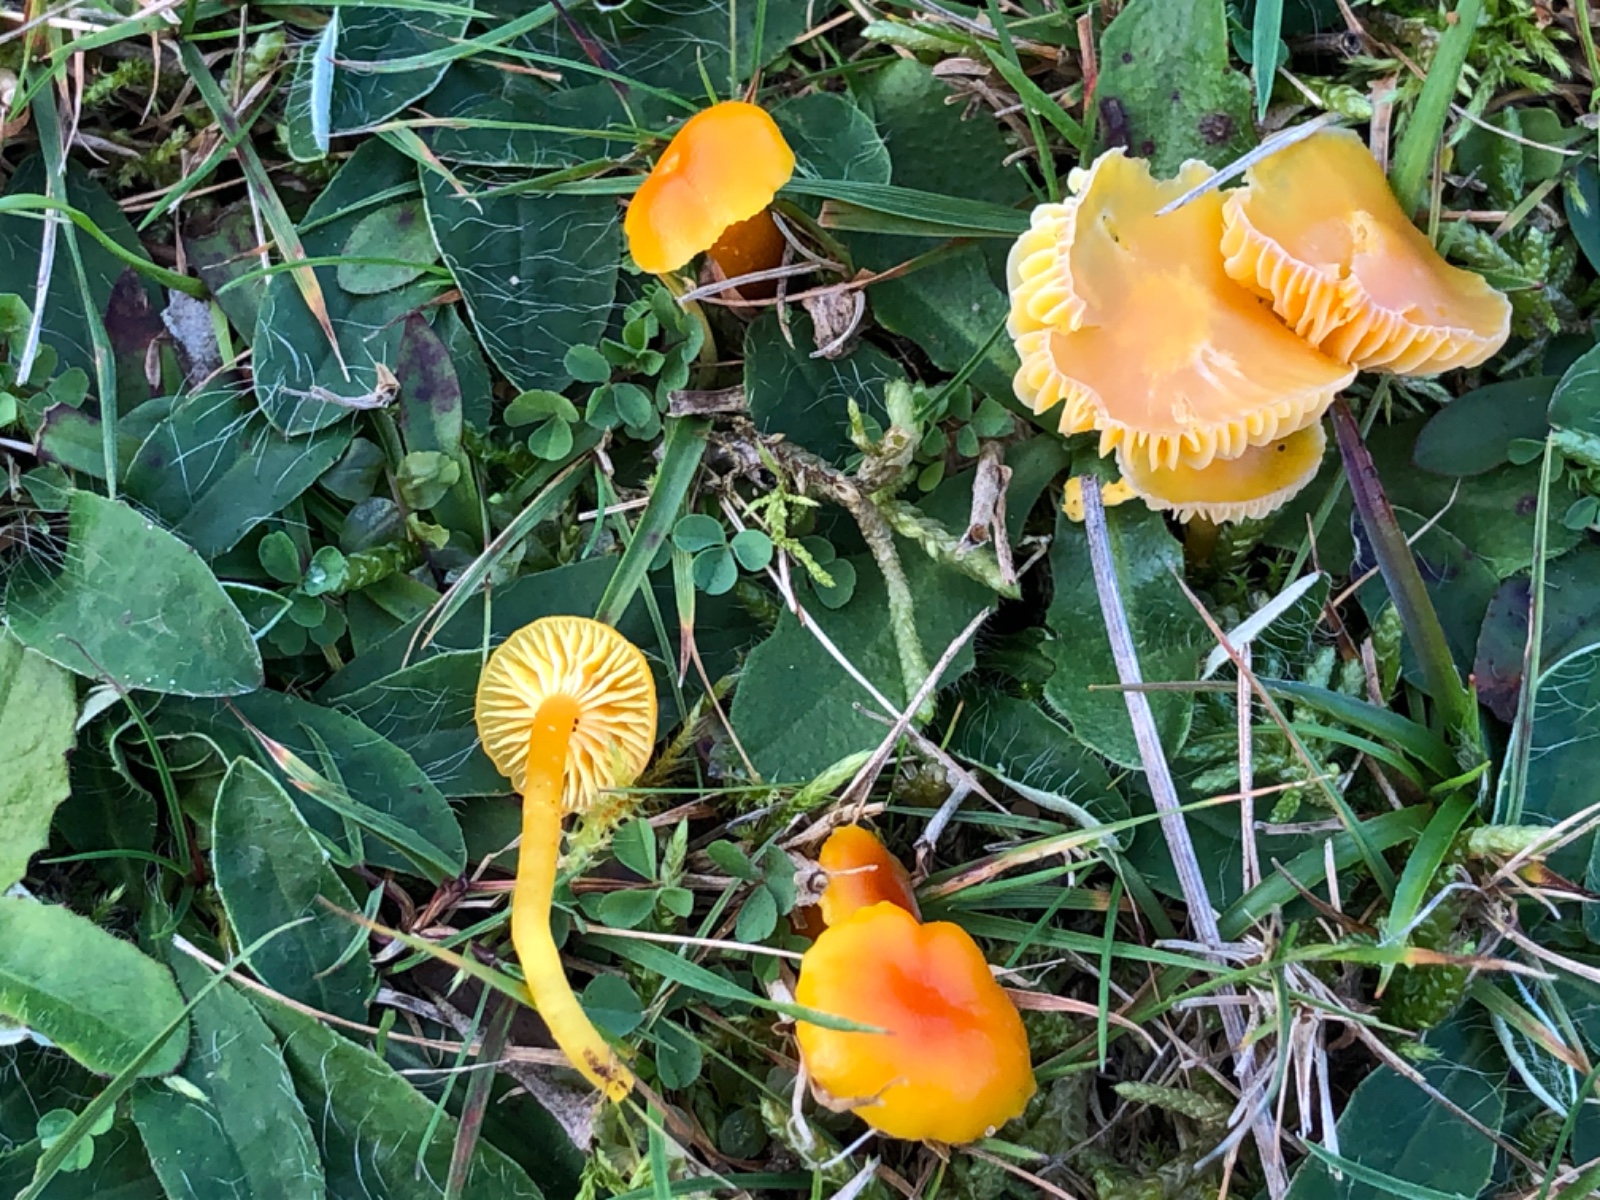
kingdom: Fungi
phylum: Basidiomycota
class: Agaricomycetes
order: Agaricales
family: Hygrophoraceae
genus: Hygrocybe
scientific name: Hygrocybe ceracea
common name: voksgul vokshat
